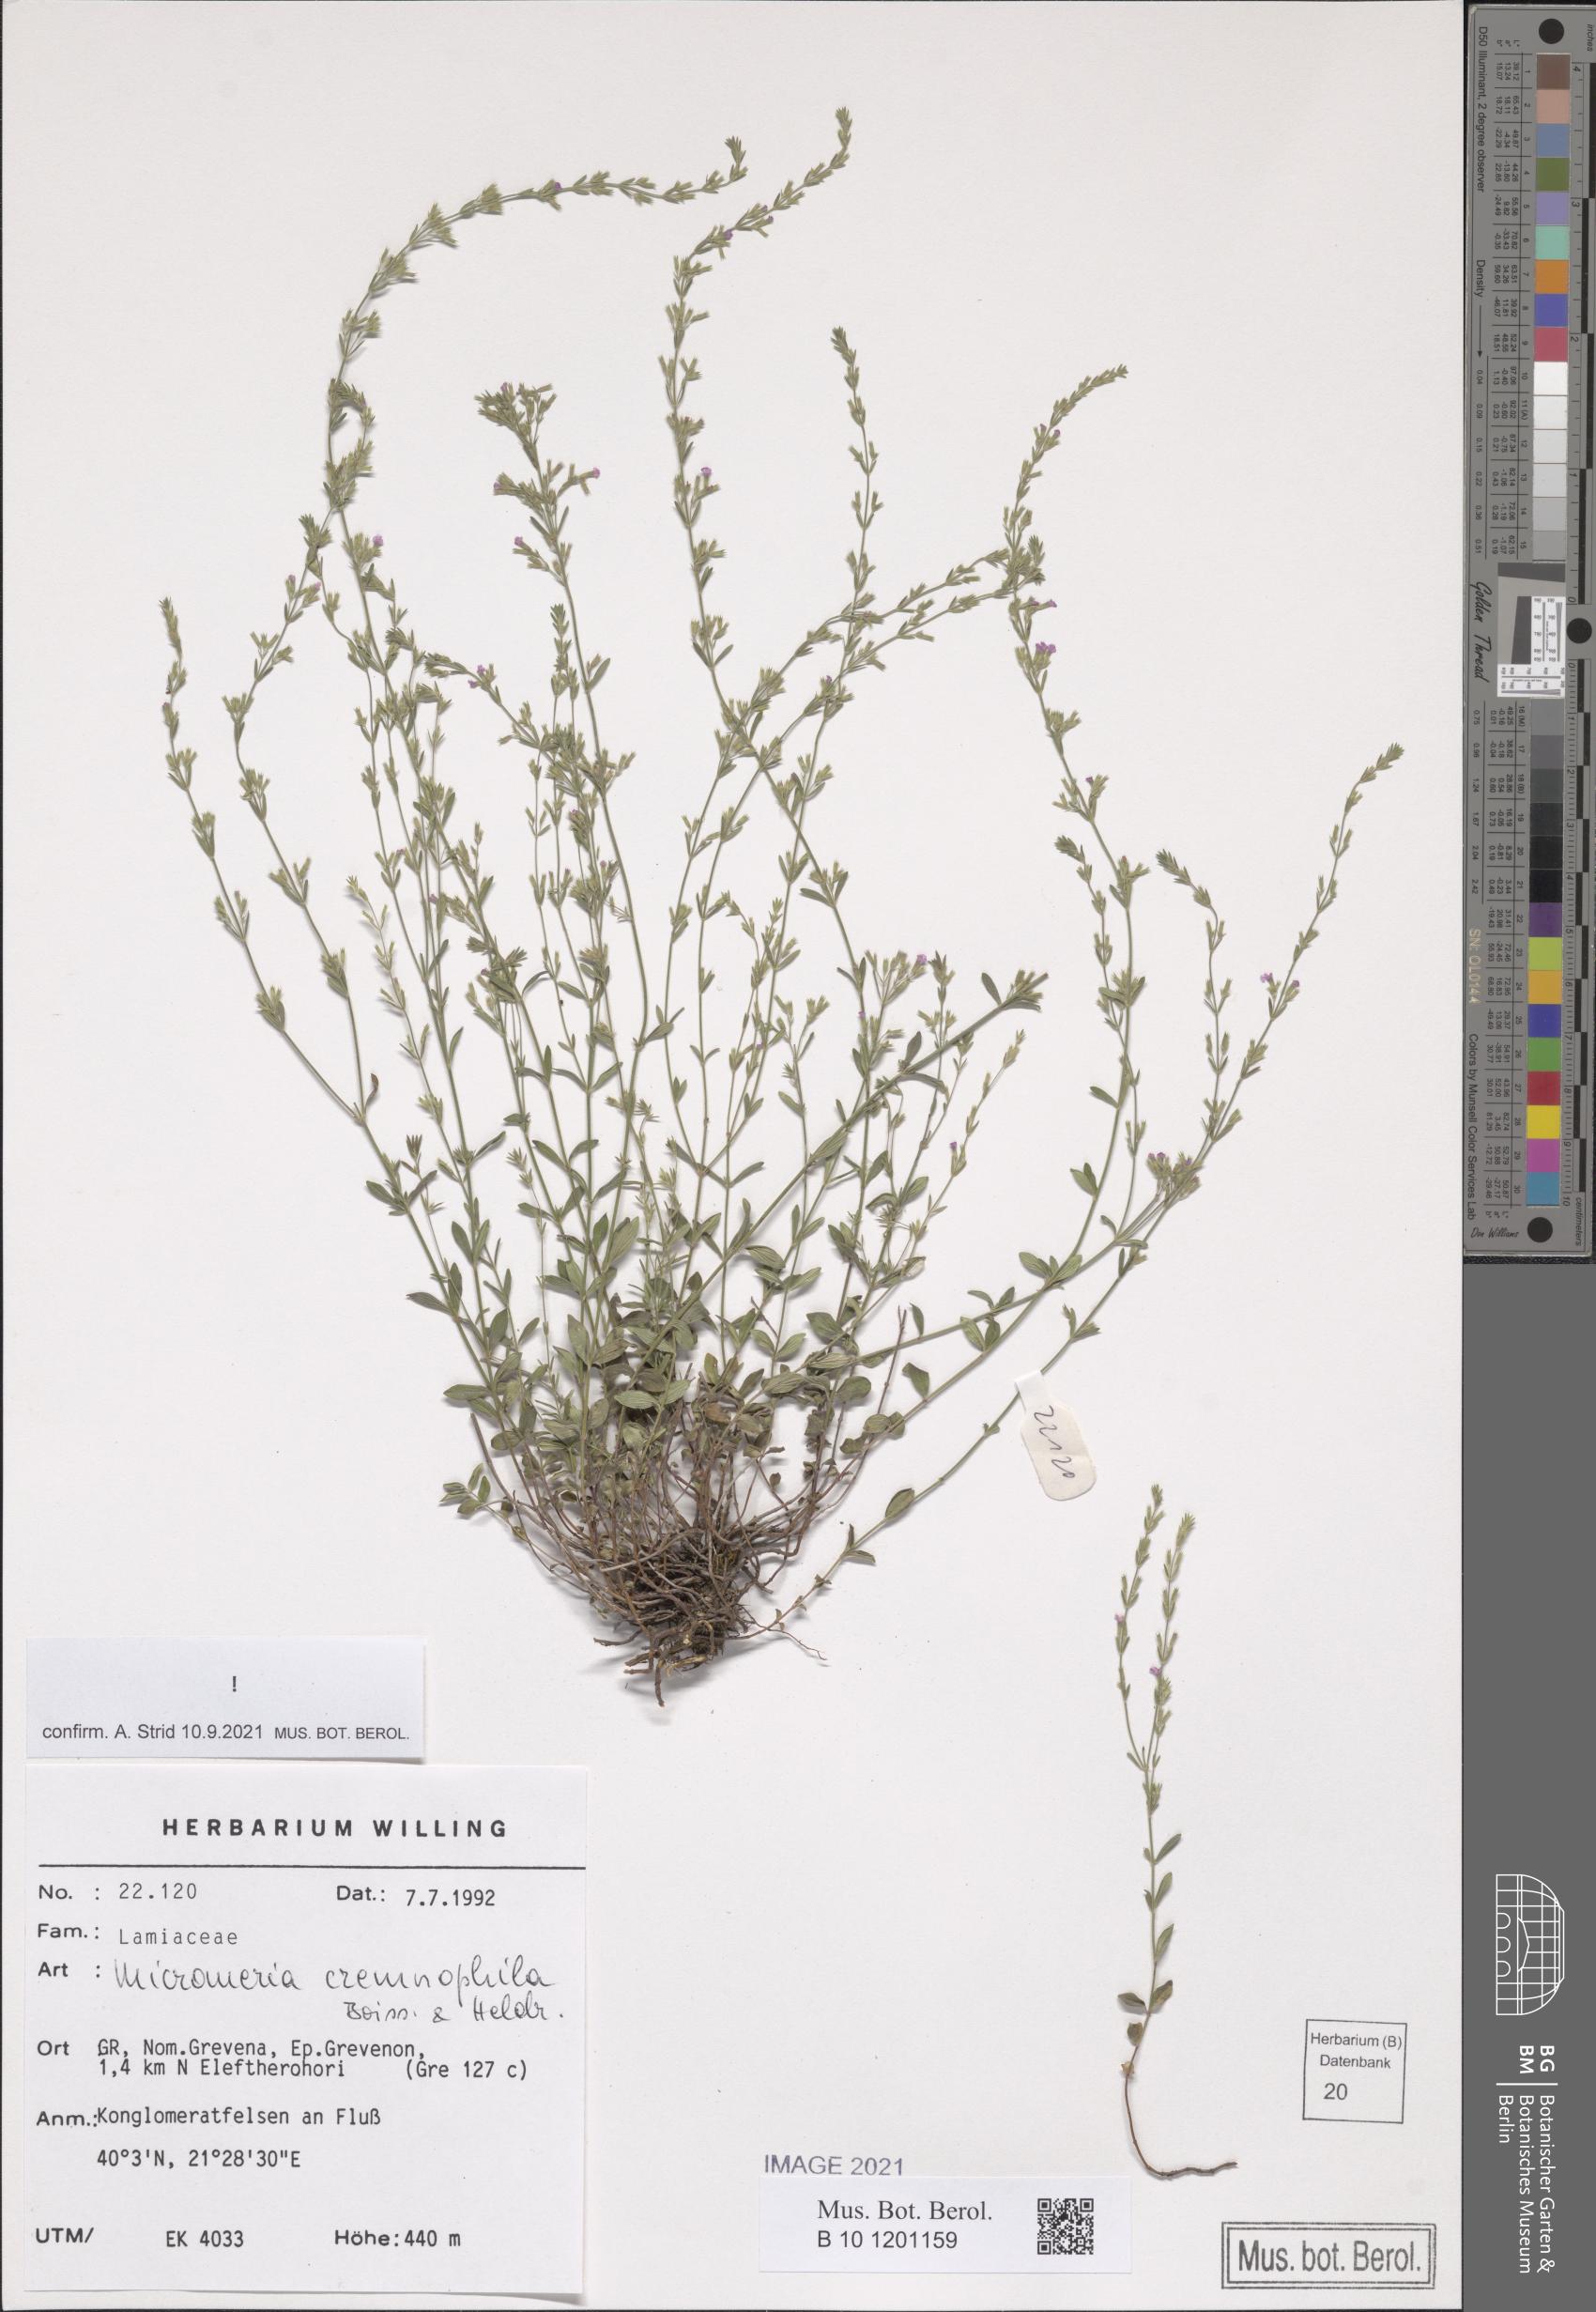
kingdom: Plantae
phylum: Tracheophyta
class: Magnoliopsida
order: Lamiales
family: Lamiaceae
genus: Micromeria
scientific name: Micromeria cremnophila
